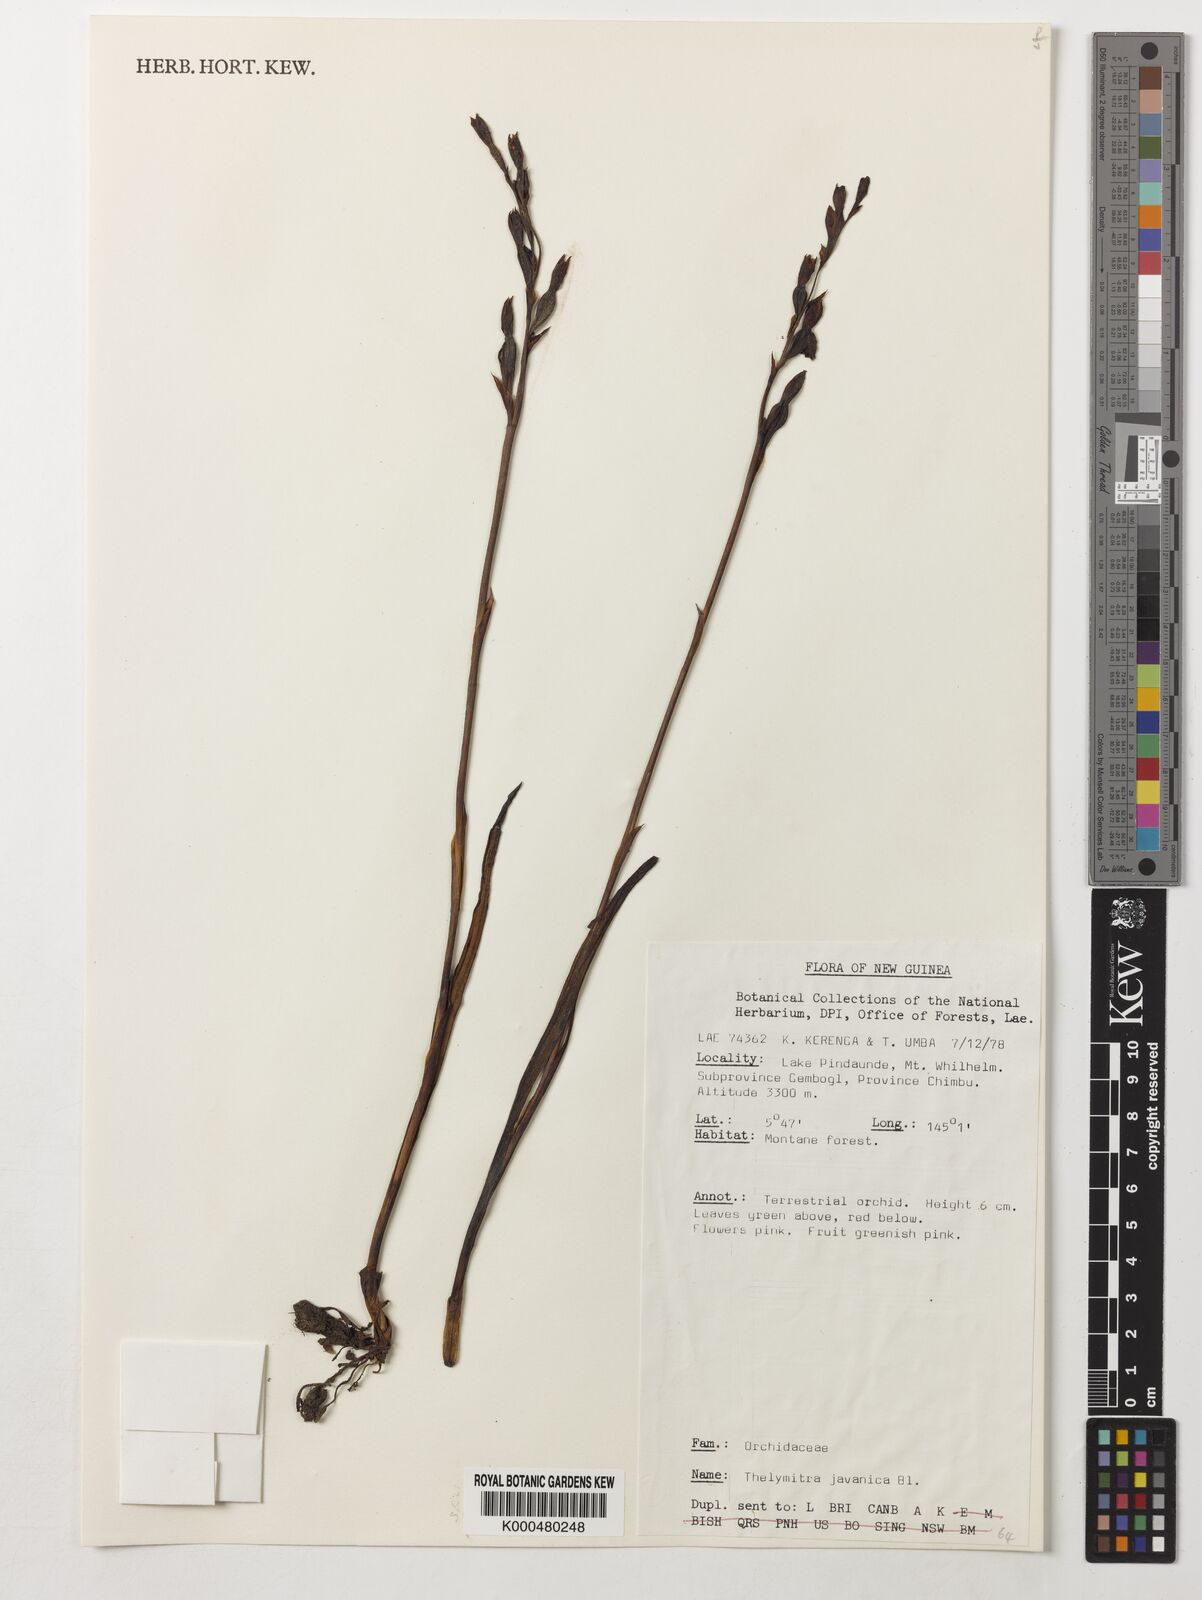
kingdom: Plantae
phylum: Tracheophyta
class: Liliopsida
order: Asparagales
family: Orchidaceae
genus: Thelymitra
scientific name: Thelymitra papuana
